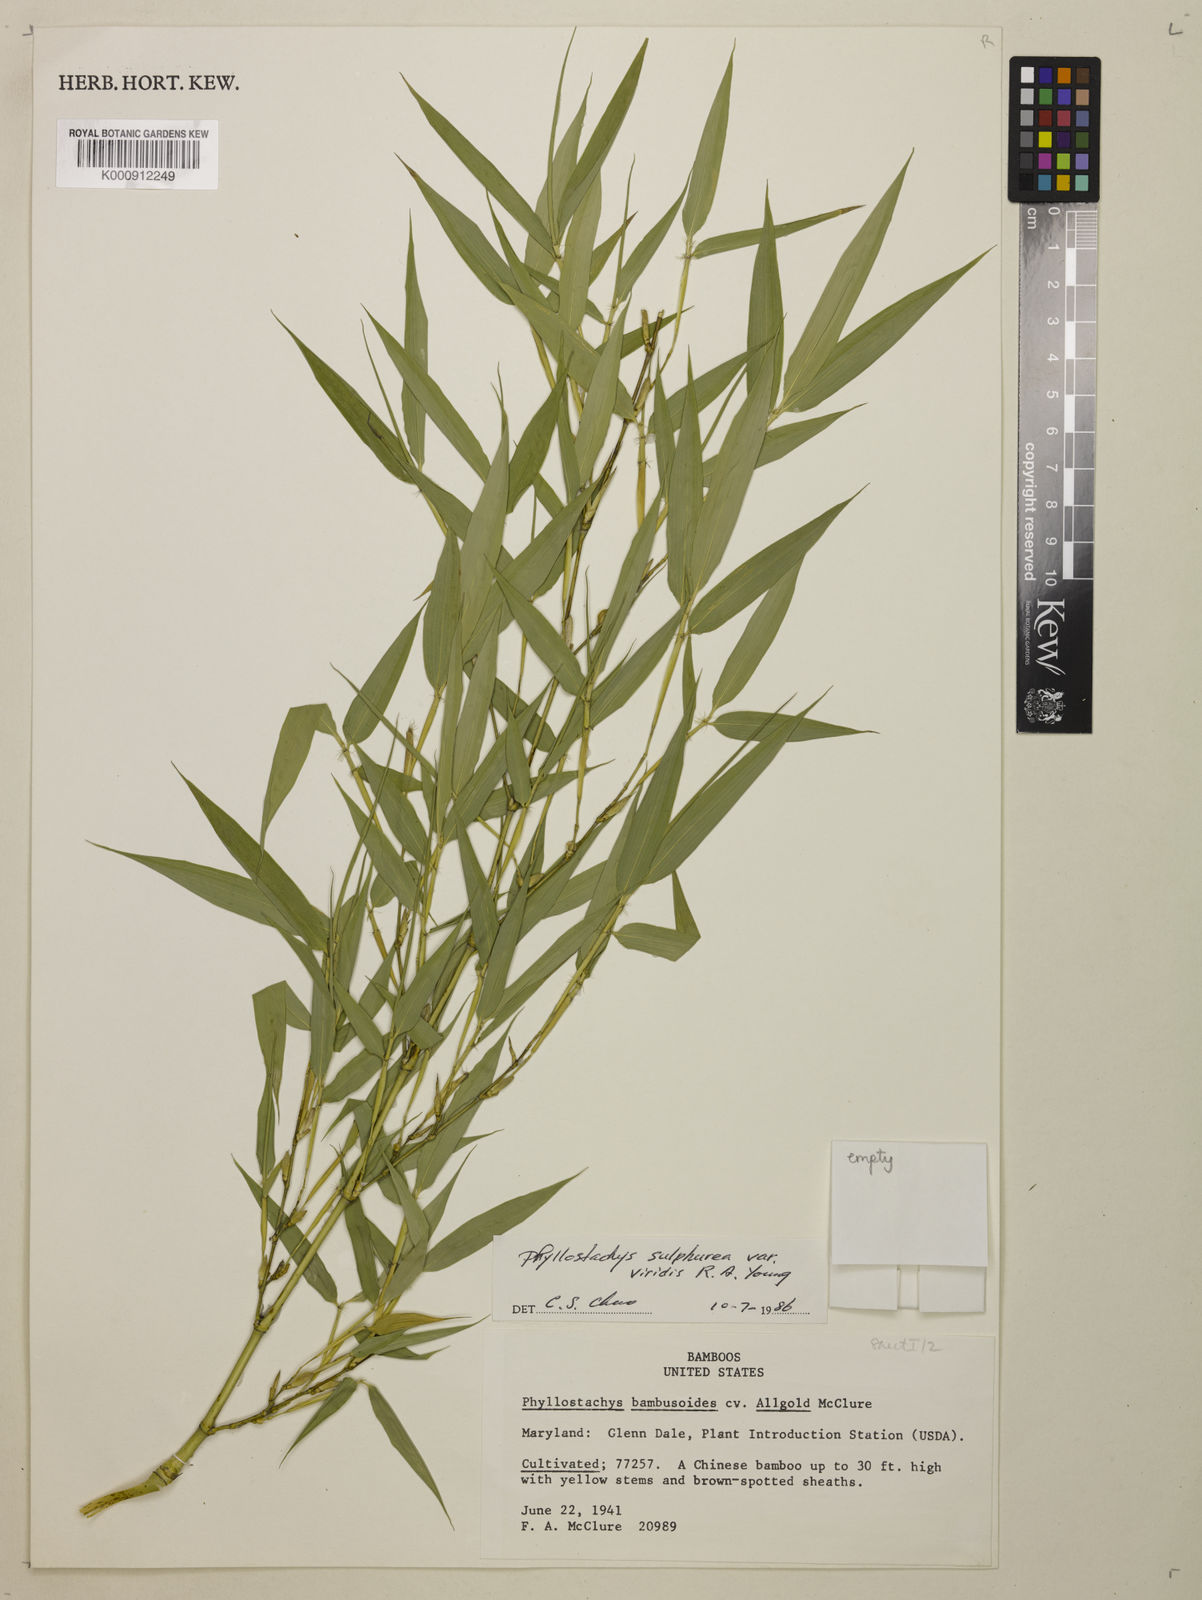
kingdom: Plantae
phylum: Tracheophyta
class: Liliopsida
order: Poales
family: Poaceae
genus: Phyllostachys
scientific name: Phyllostachys
